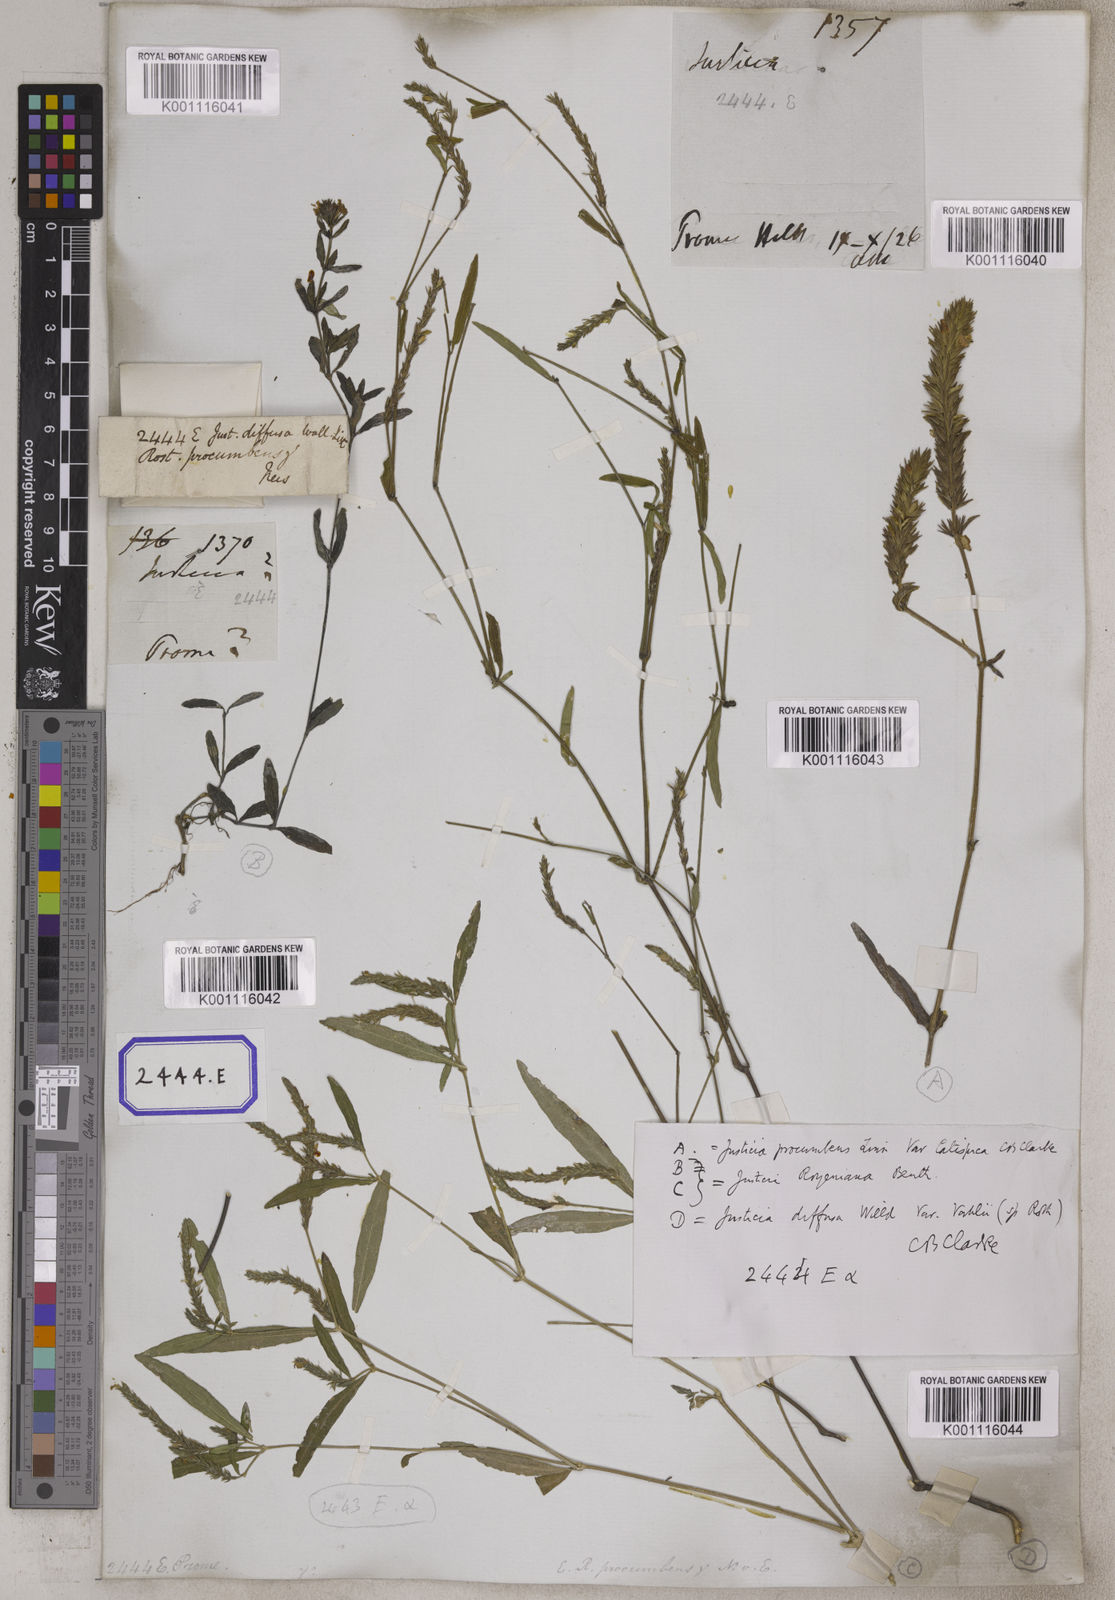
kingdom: Plantae
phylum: Tracheophyta
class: Magnoliopsida
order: Lamiales
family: Acanthaceae
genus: Justicia
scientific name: Justicia
